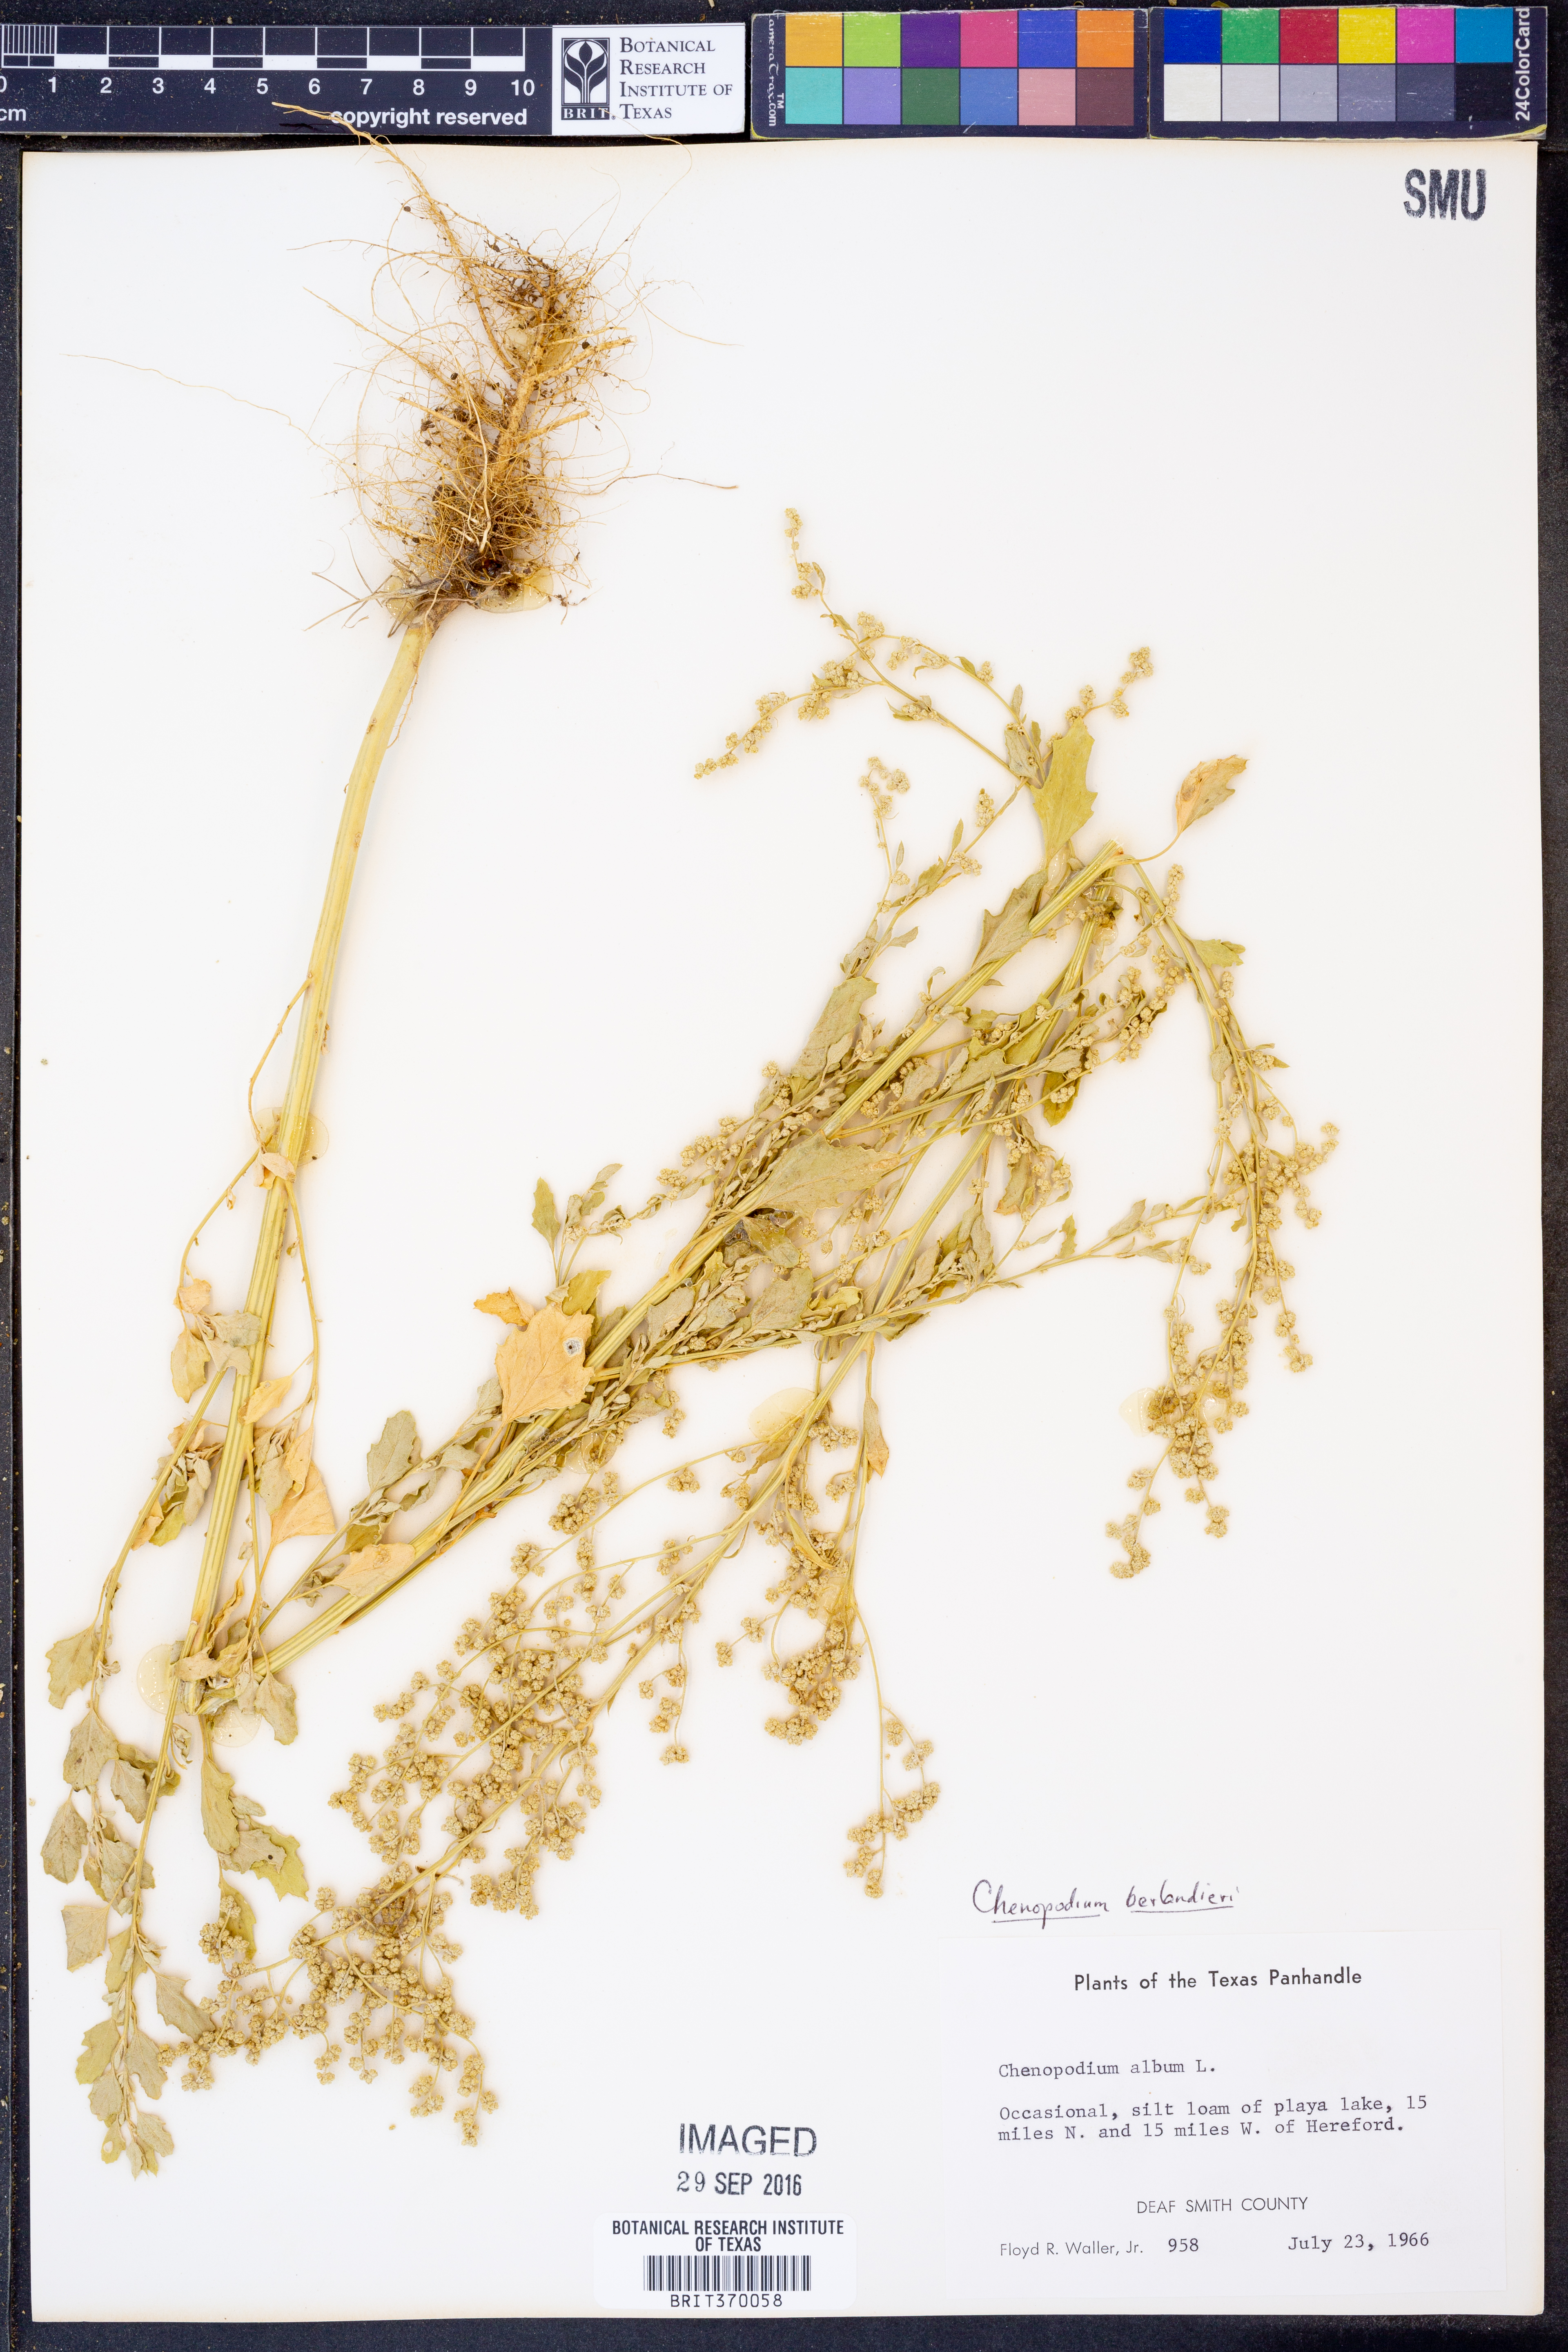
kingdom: Plantae
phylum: Tracheophyta
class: Magnoliopsida
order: Caryophyllales
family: Amaranthaceae
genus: Chenopodium
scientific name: Chenopodium berlandieri
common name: Pit-seed goosefoot
